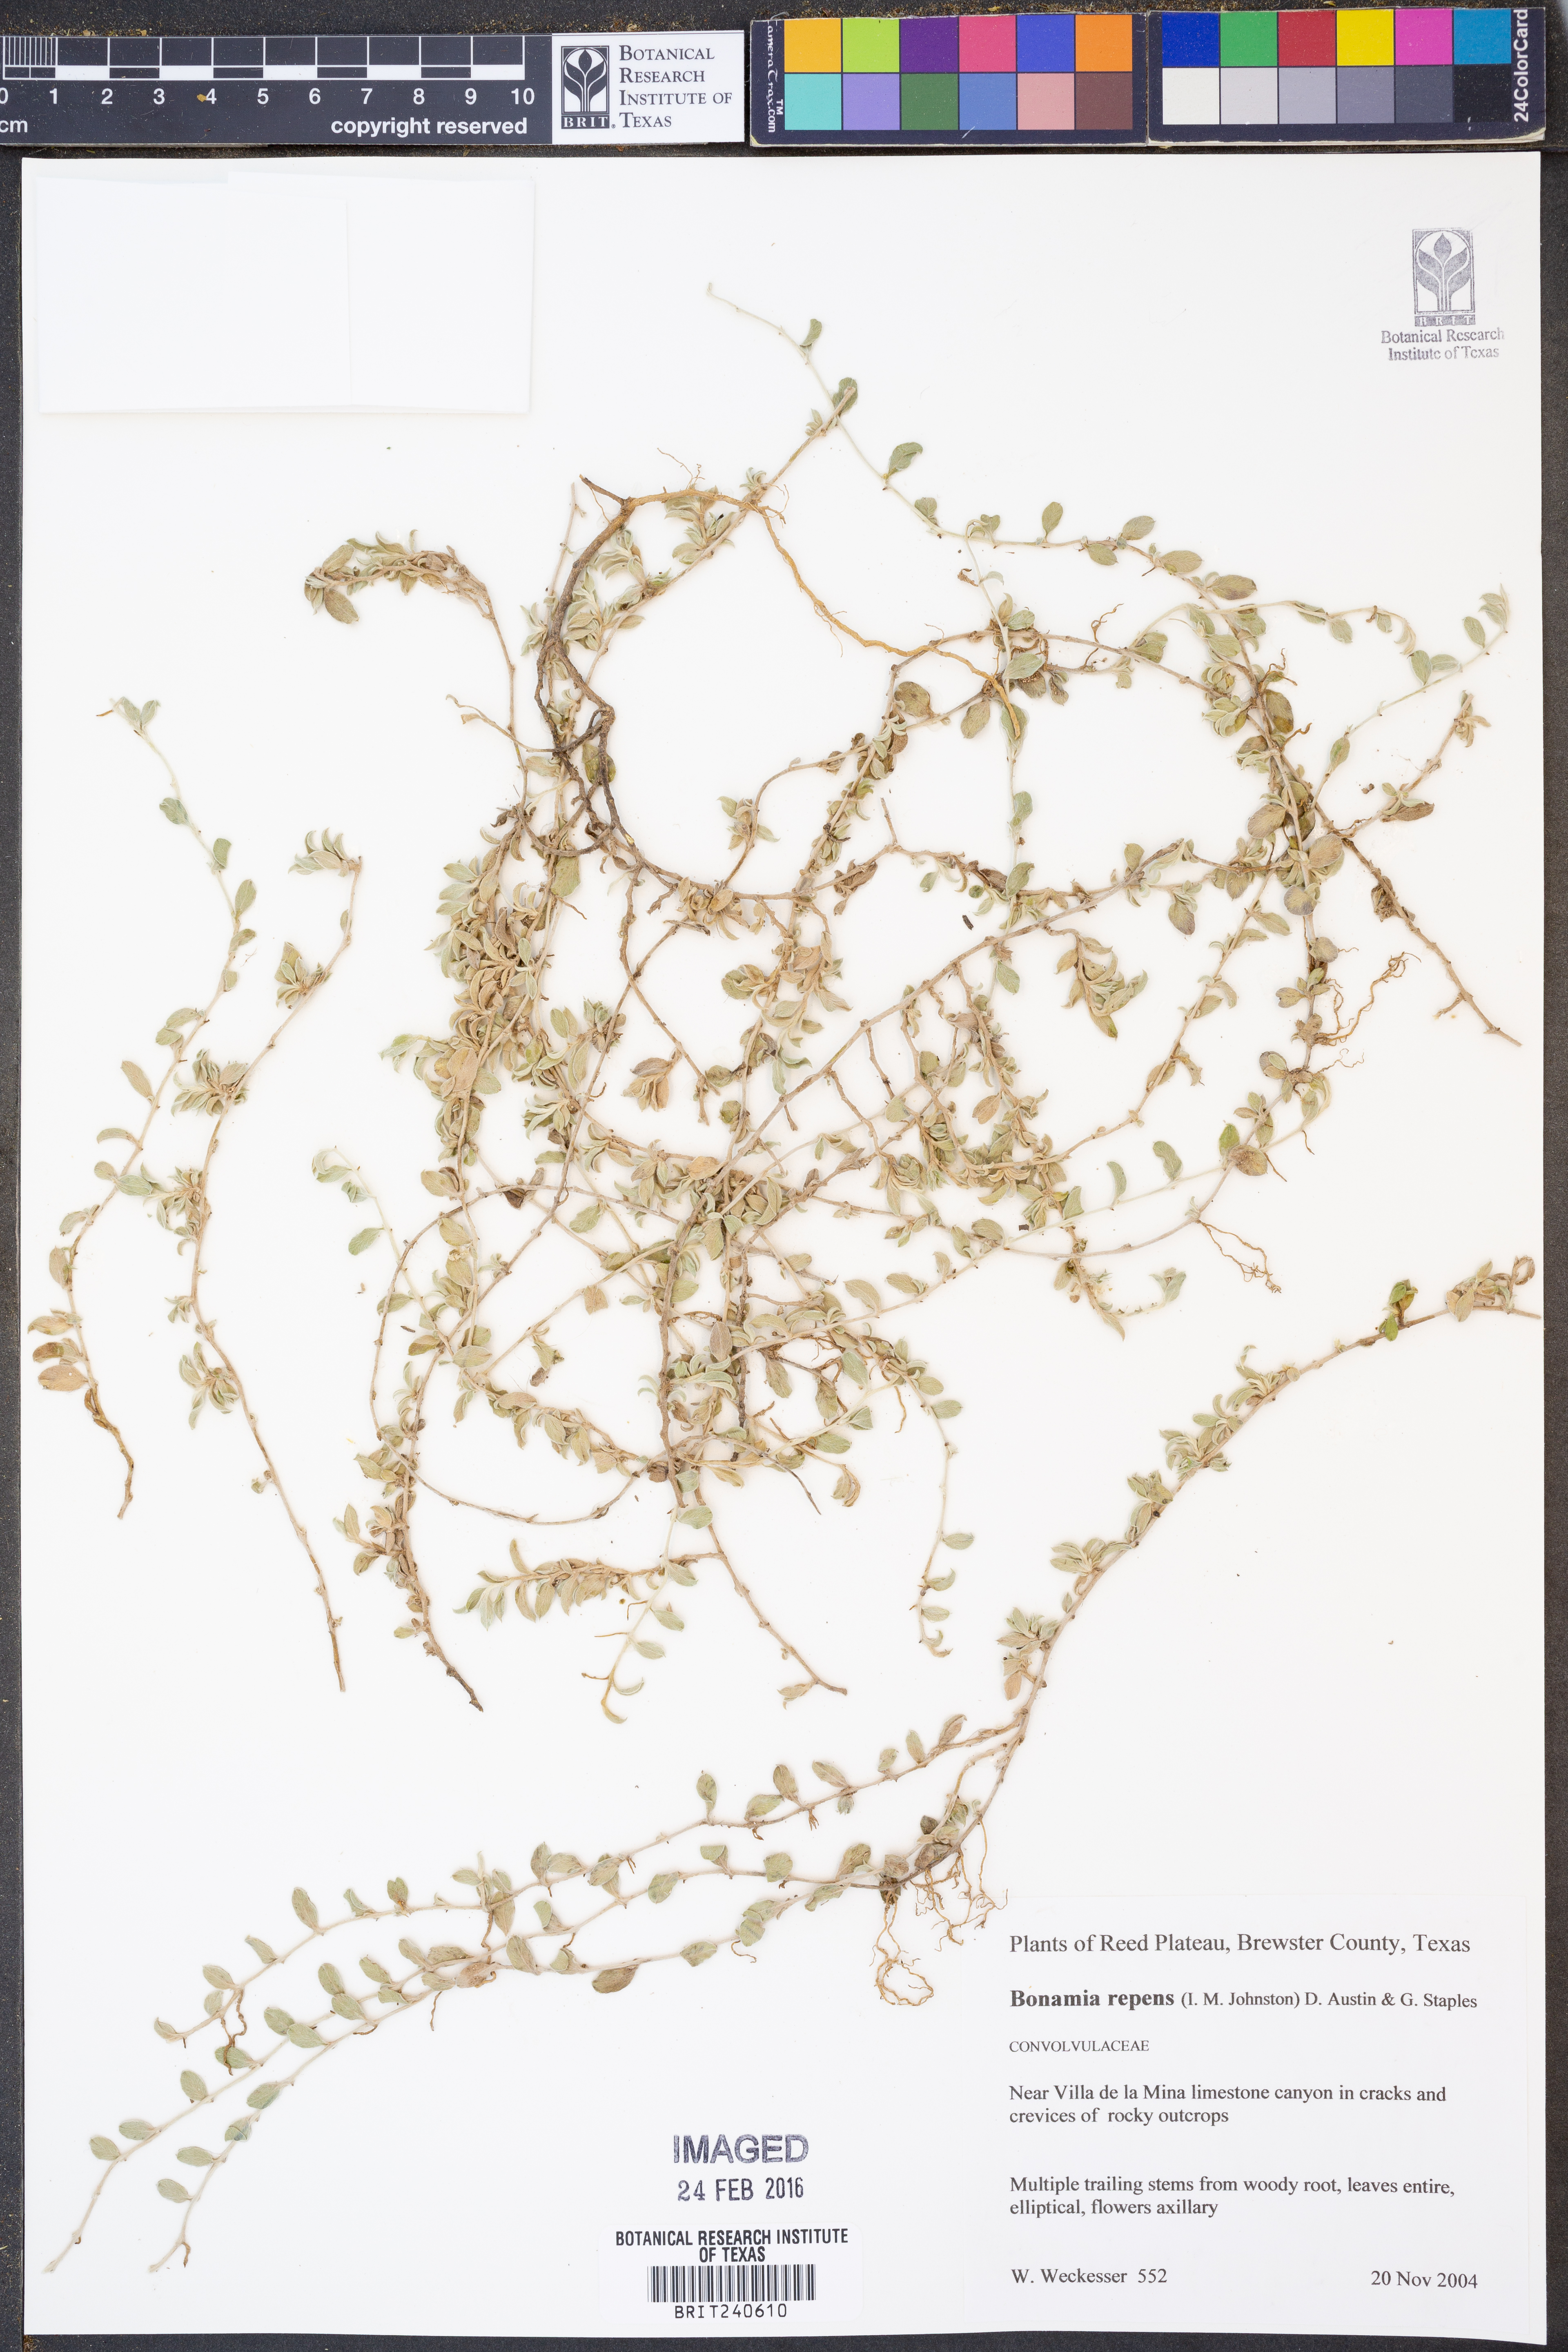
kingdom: Plantae
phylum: Tracheophyta
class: Magnoliopsida
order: Solanales
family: Convolvulaceae
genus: Bonamia
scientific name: Bonamia repens
